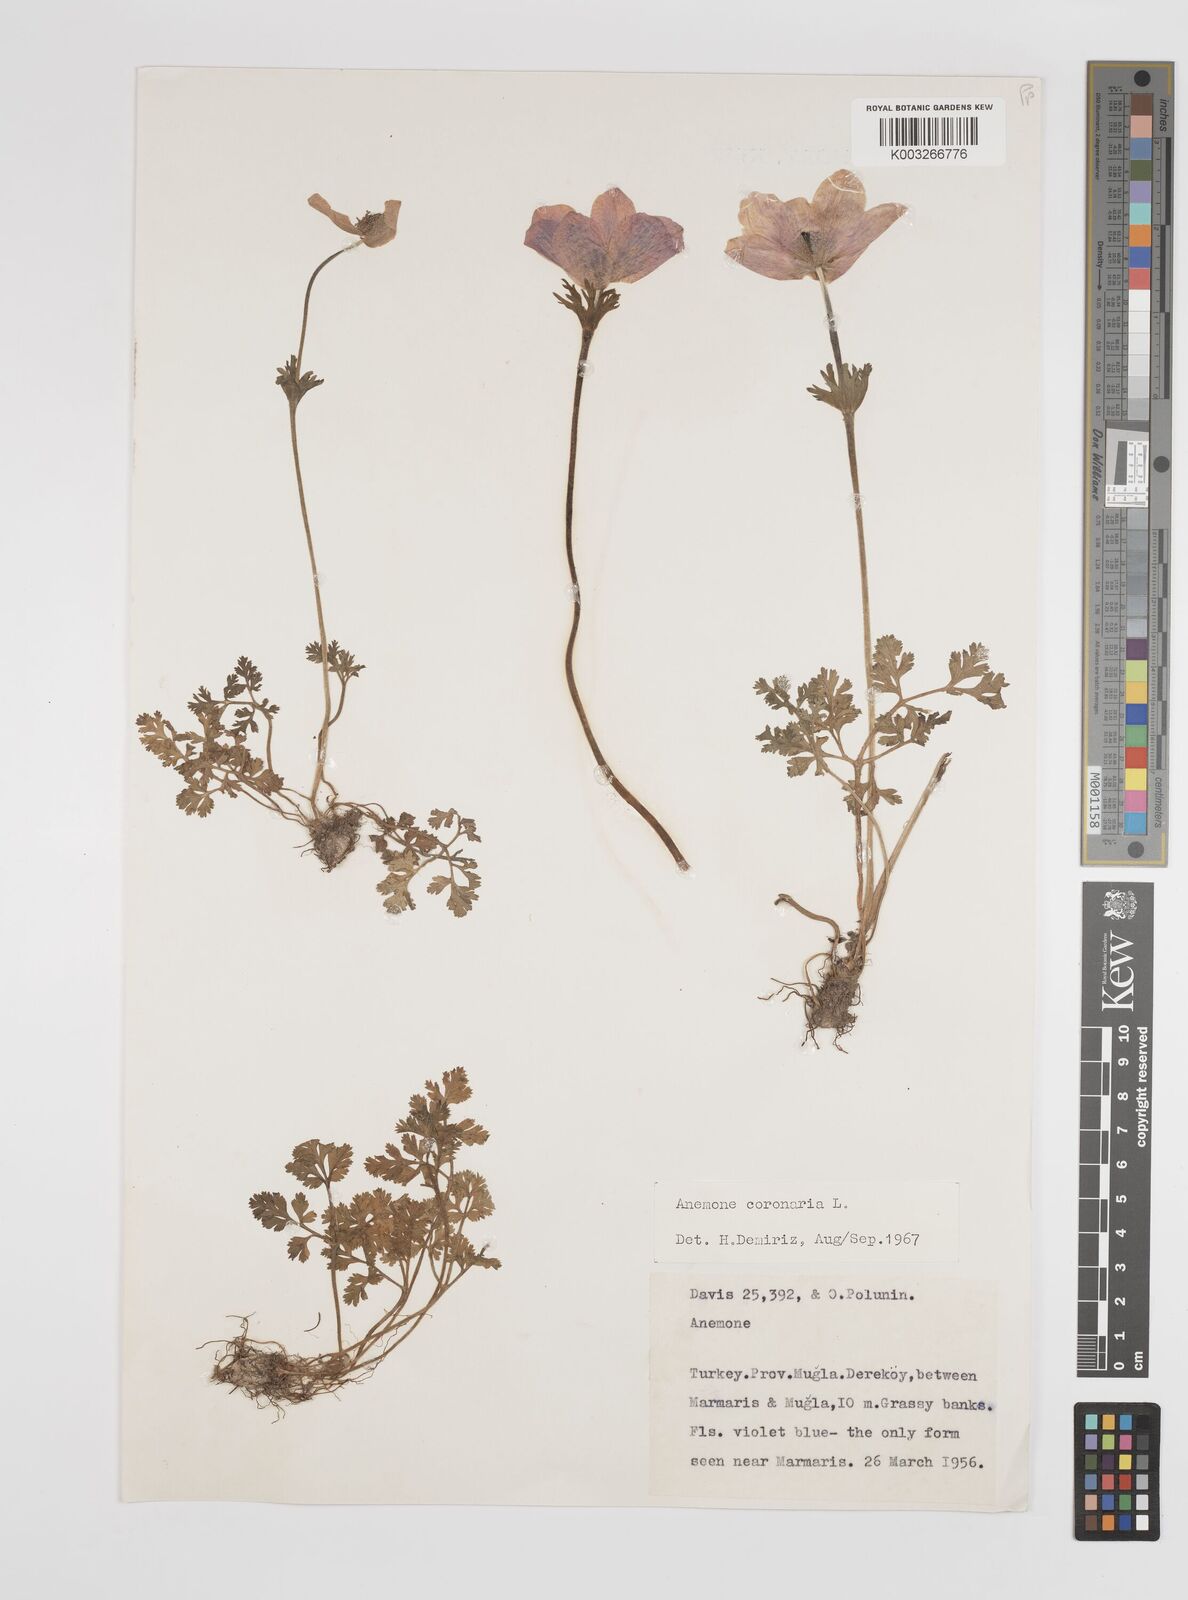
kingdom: Plantae
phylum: Tracheophyta
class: Magnoliopsida
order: Ranunculales
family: Ranunculaceae
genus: Anemone
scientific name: Anemone coronaria
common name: Poppy anemone
